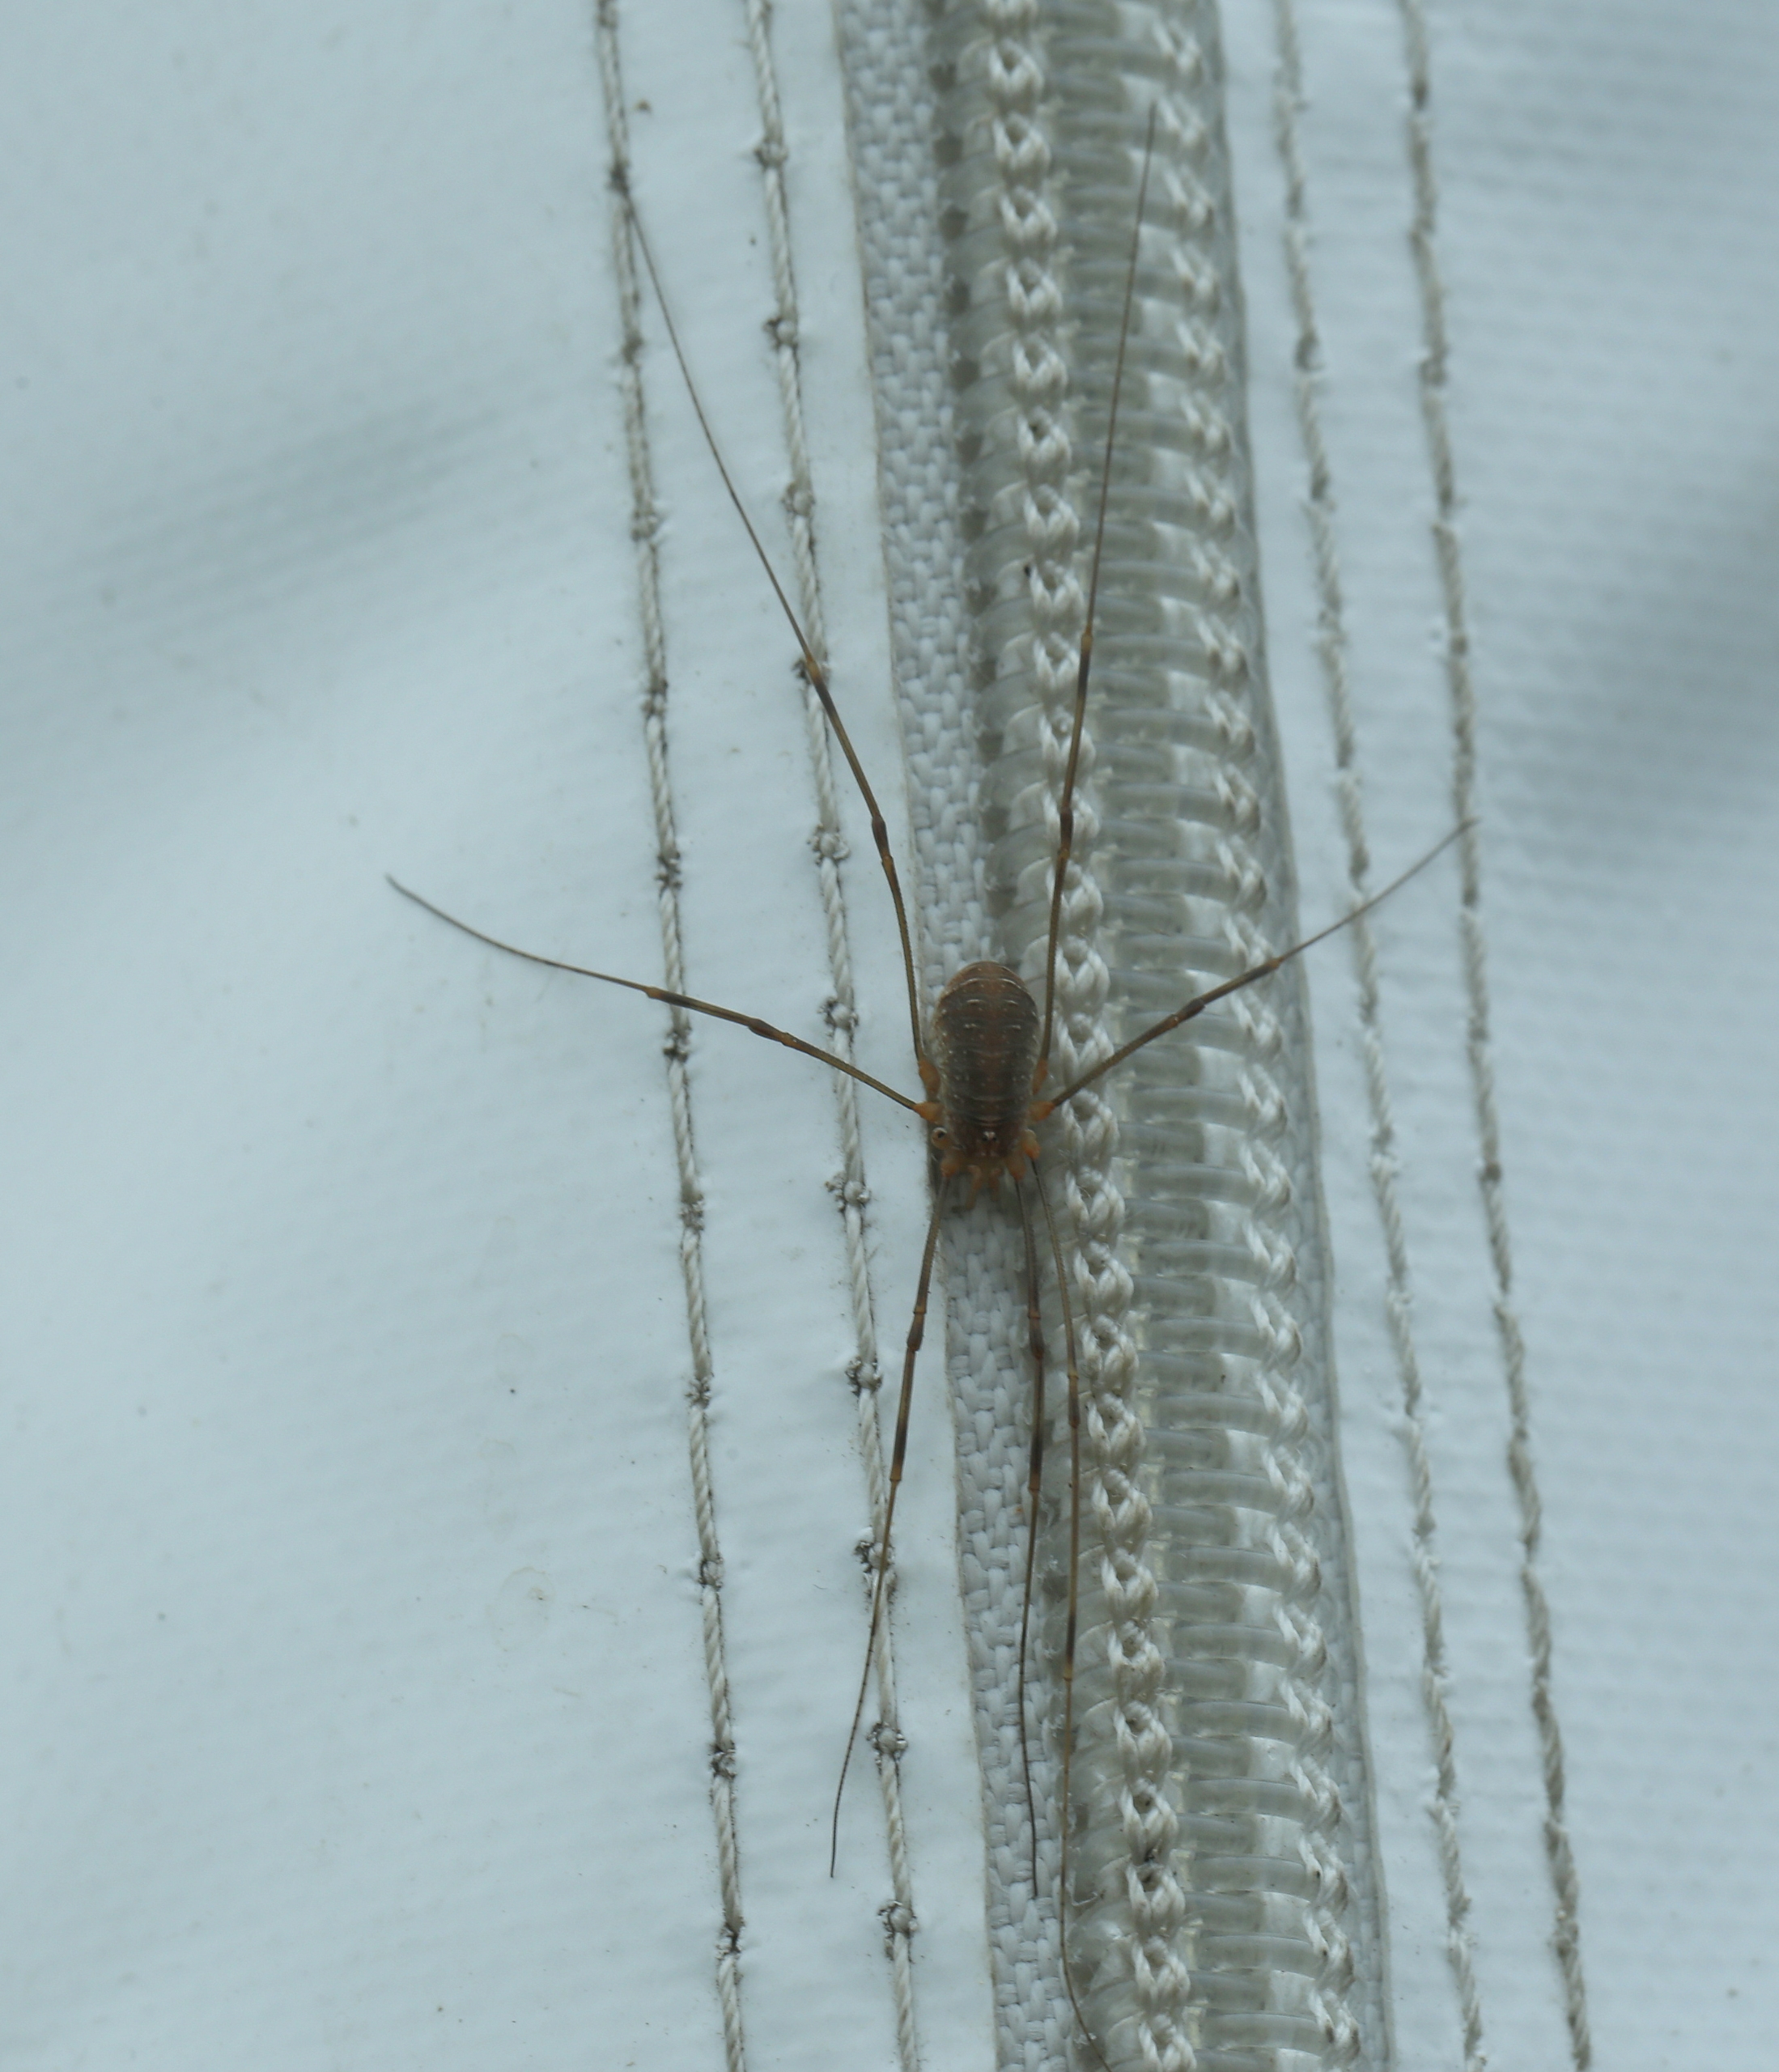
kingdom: Animalia
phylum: Arthropoda
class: Arachnida
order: Opiliones
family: Phalangiidae
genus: Opilio
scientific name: Opilio canestrinii
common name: Orange vægmejer
